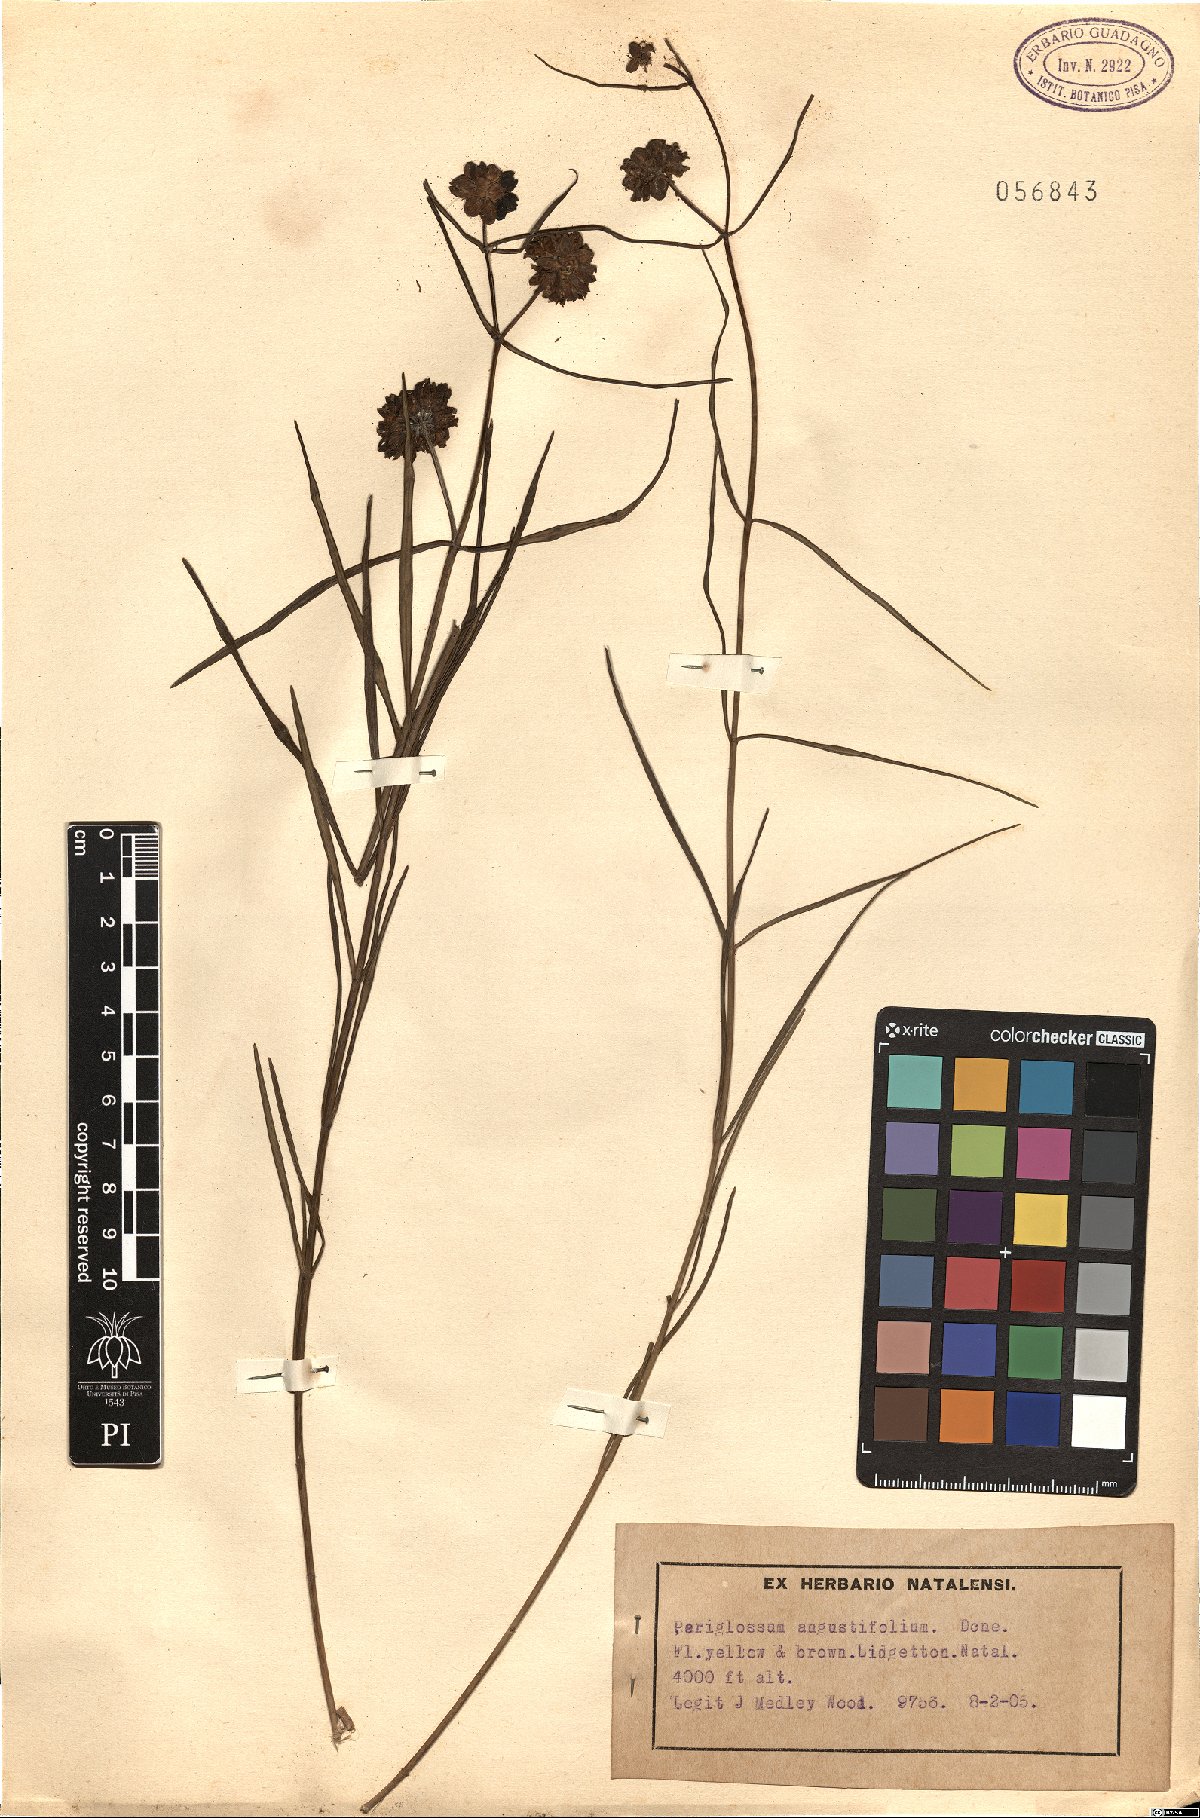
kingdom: Plantae
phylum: Tracheophyta
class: Magnoliopsida
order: Gentianales
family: Apocynaceae
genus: Periglossum
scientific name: Periglossum angustifolium
